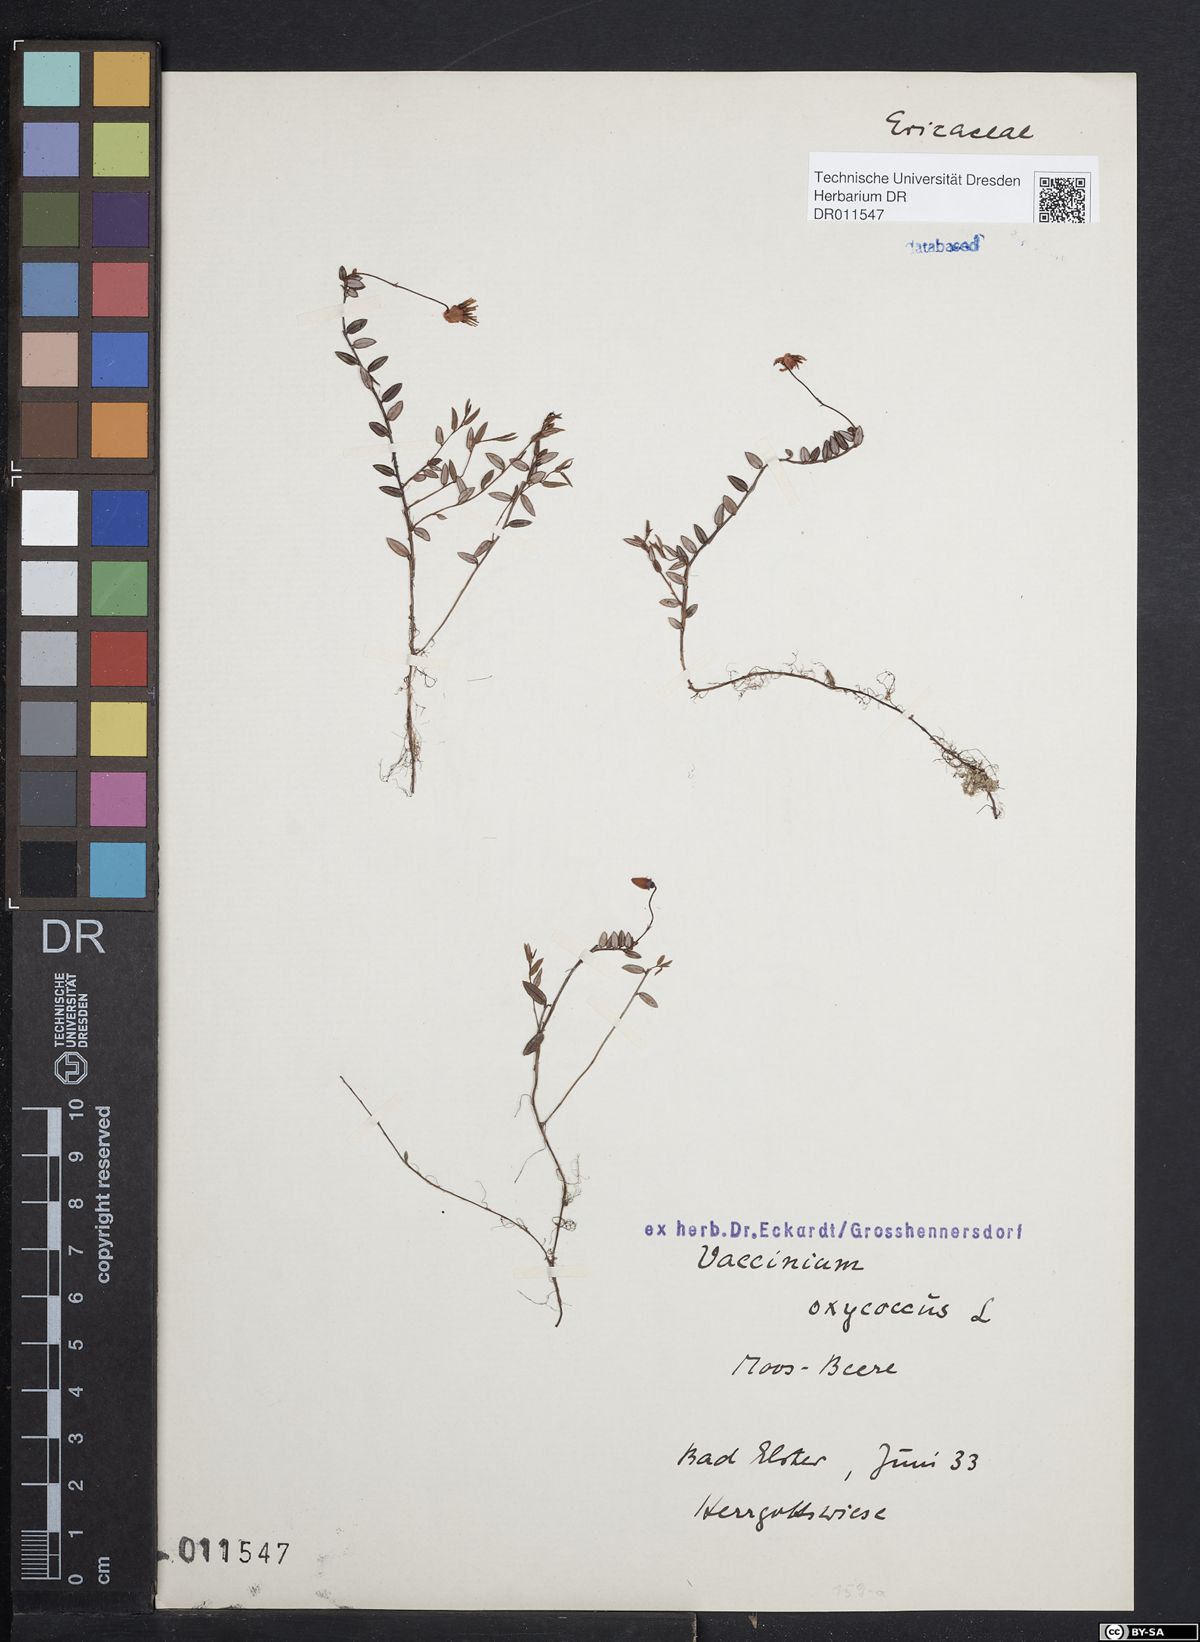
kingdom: Plantae
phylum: Tracheophyta
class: Magnoliopsida
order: Ericales
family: Ericaceae
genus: Vaccinium
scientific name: Vaccinium oxycoccos
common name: Cranberry
